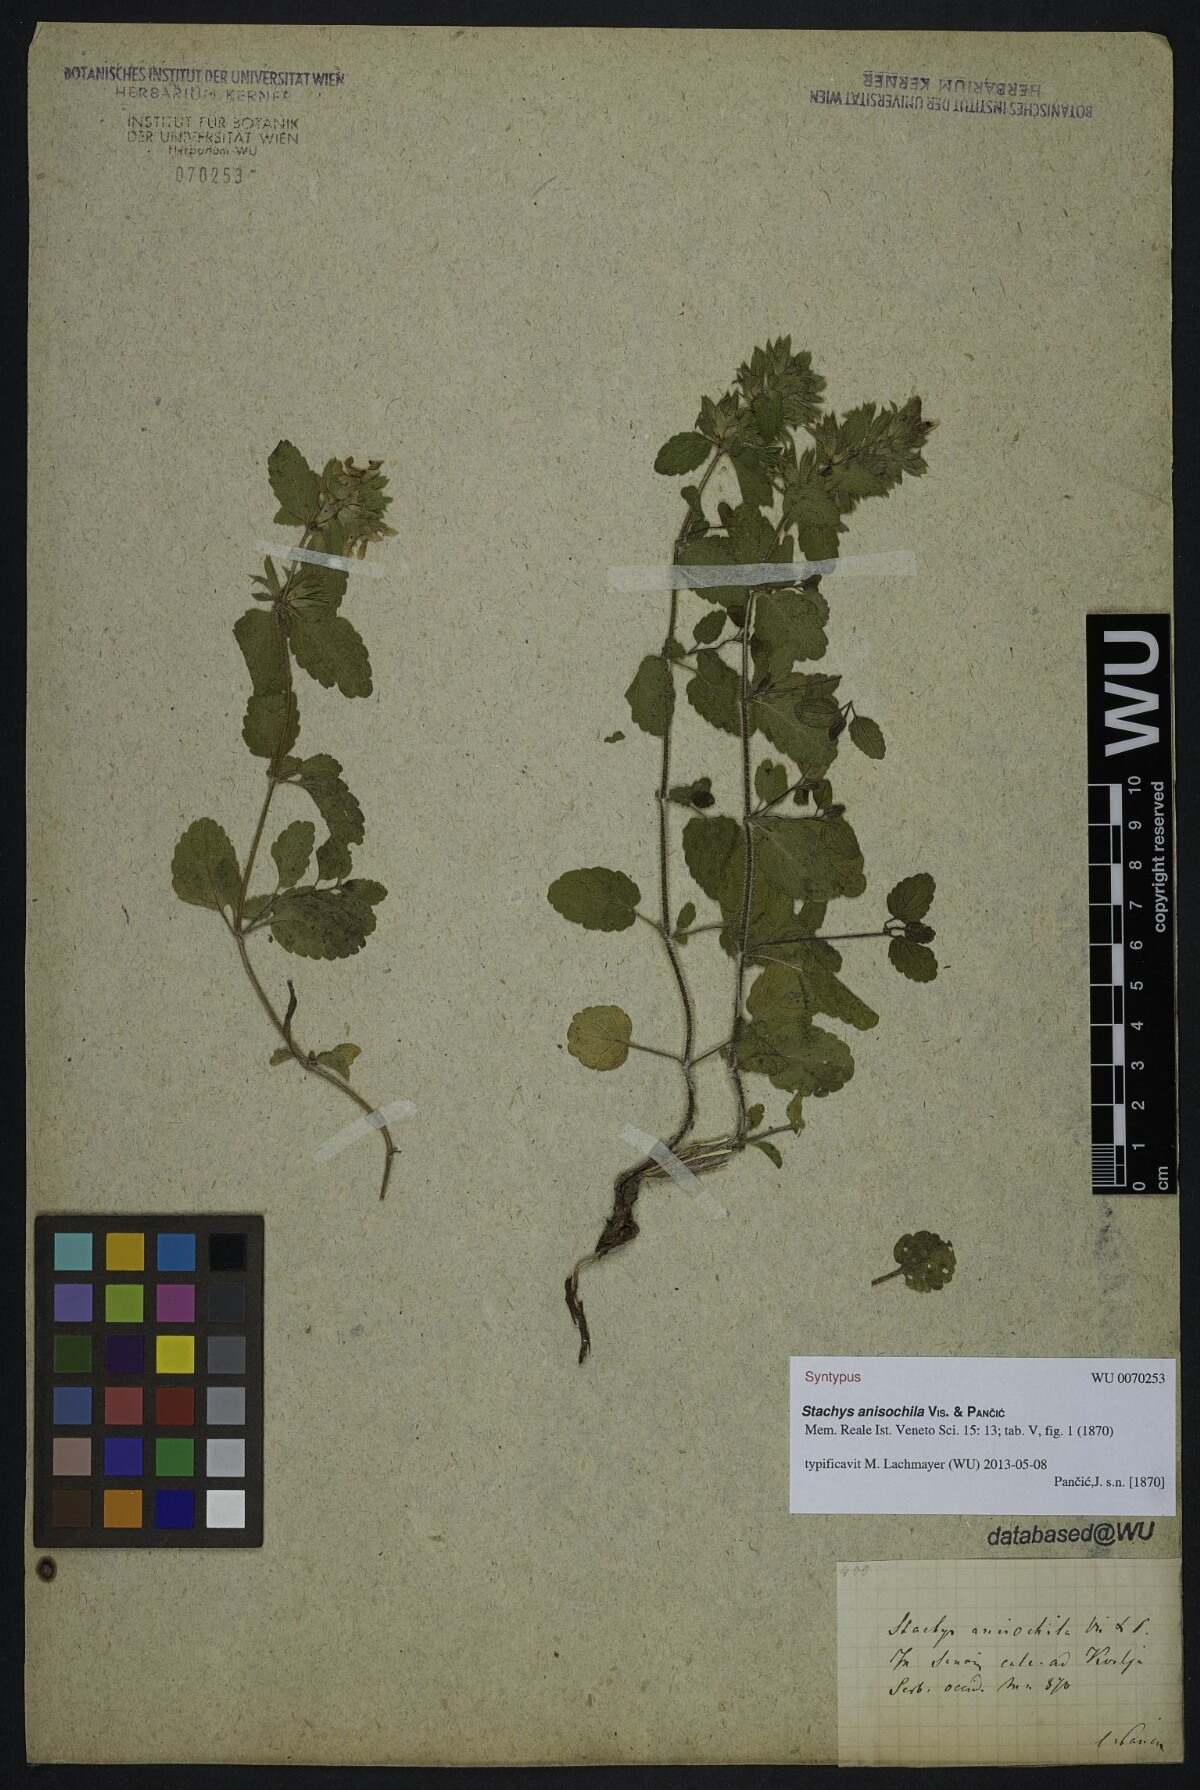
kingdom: Plantae
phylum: Tracheophyta
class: Magnoliopsida
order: Lamiales
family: Lamiaceae
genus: Stachys
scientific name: Stachys anisochila
